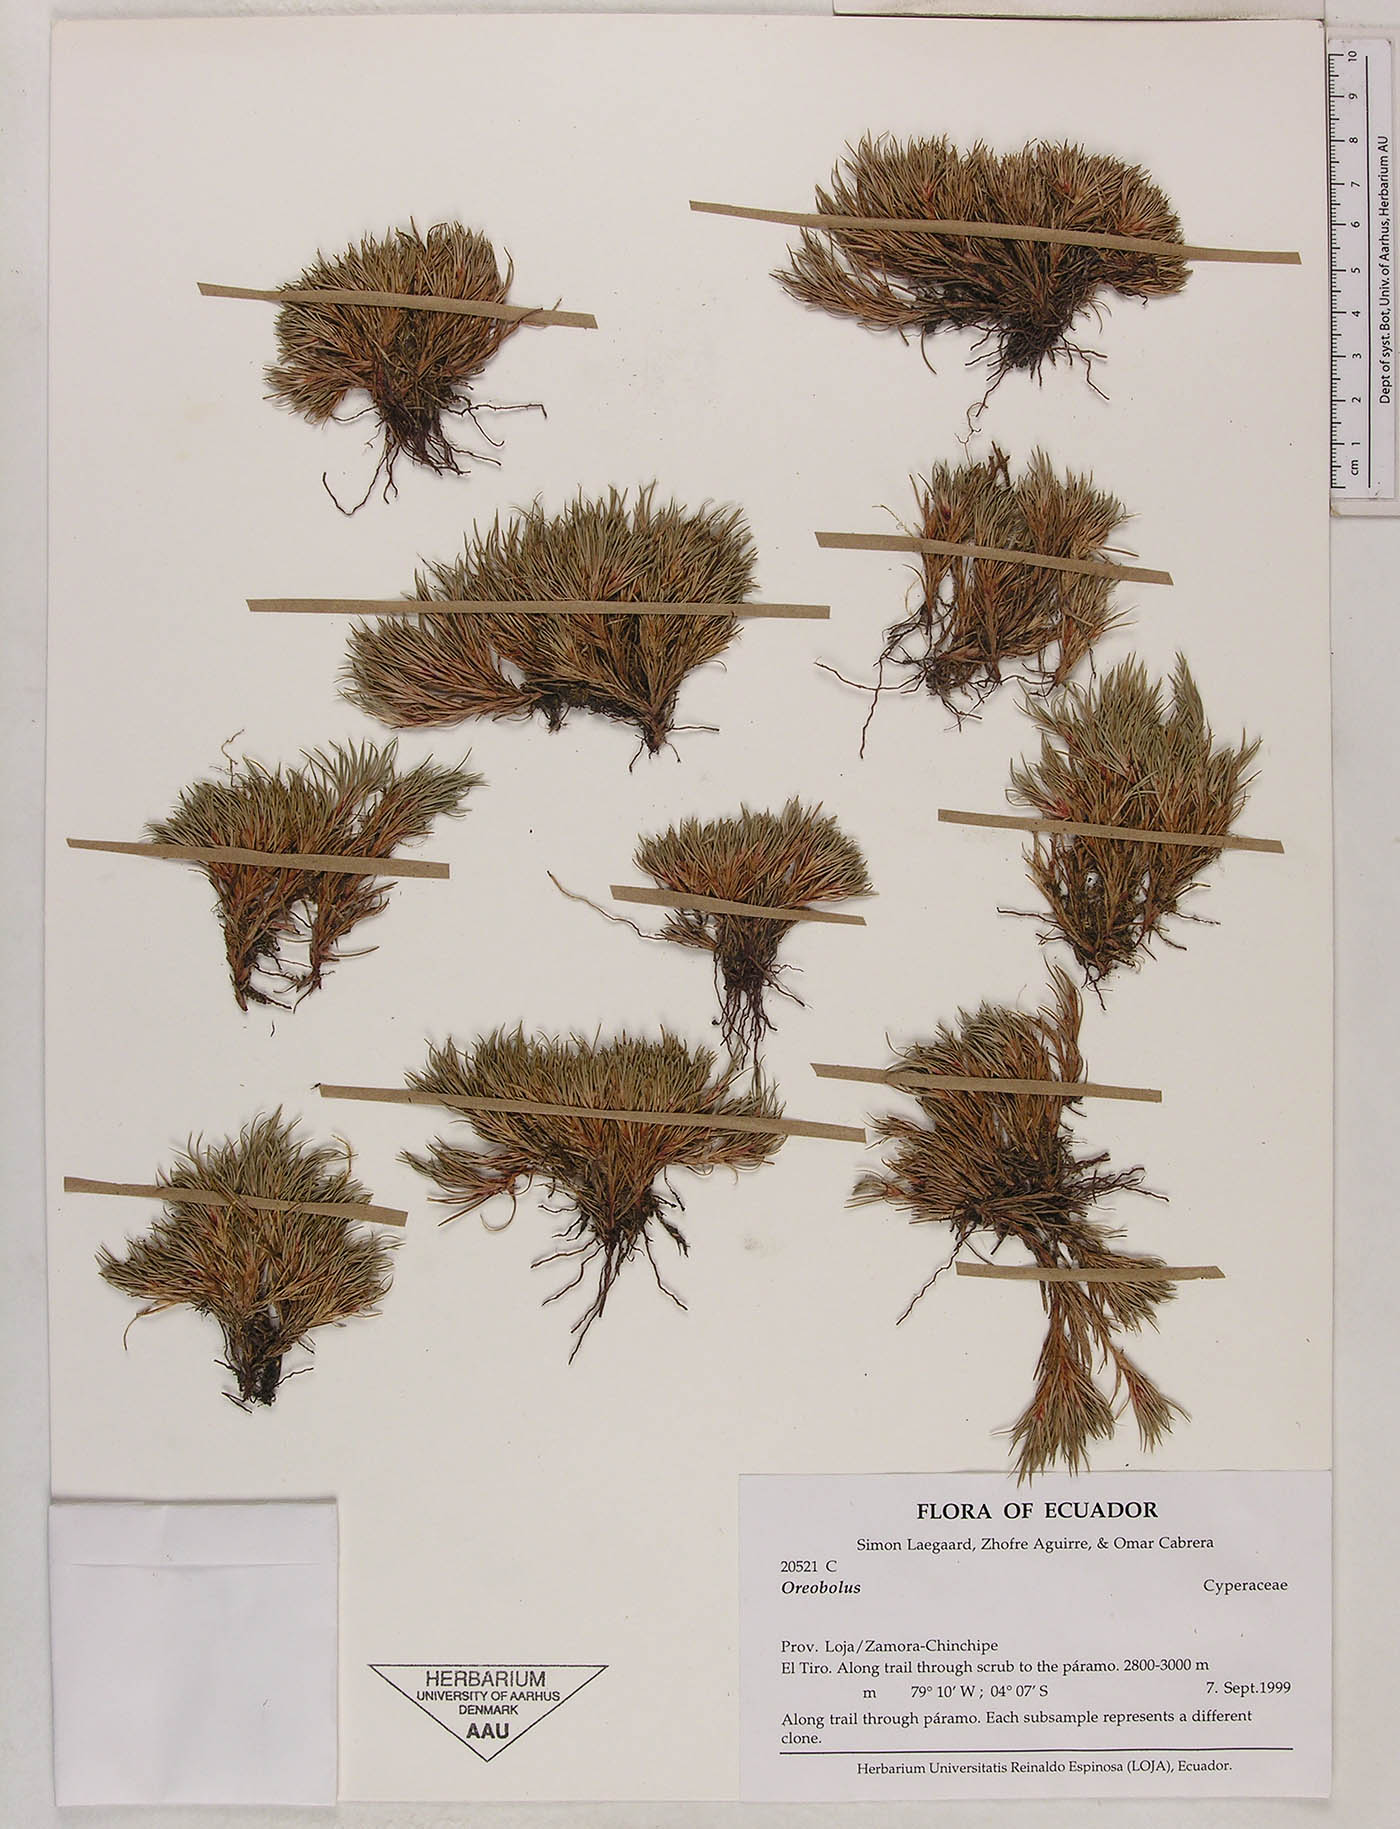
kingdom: Plantae
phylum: Tracheophyta
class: Liliopsida
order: Poales
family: Cyperaceae
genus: Oreobolus
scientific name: Oreobolus
